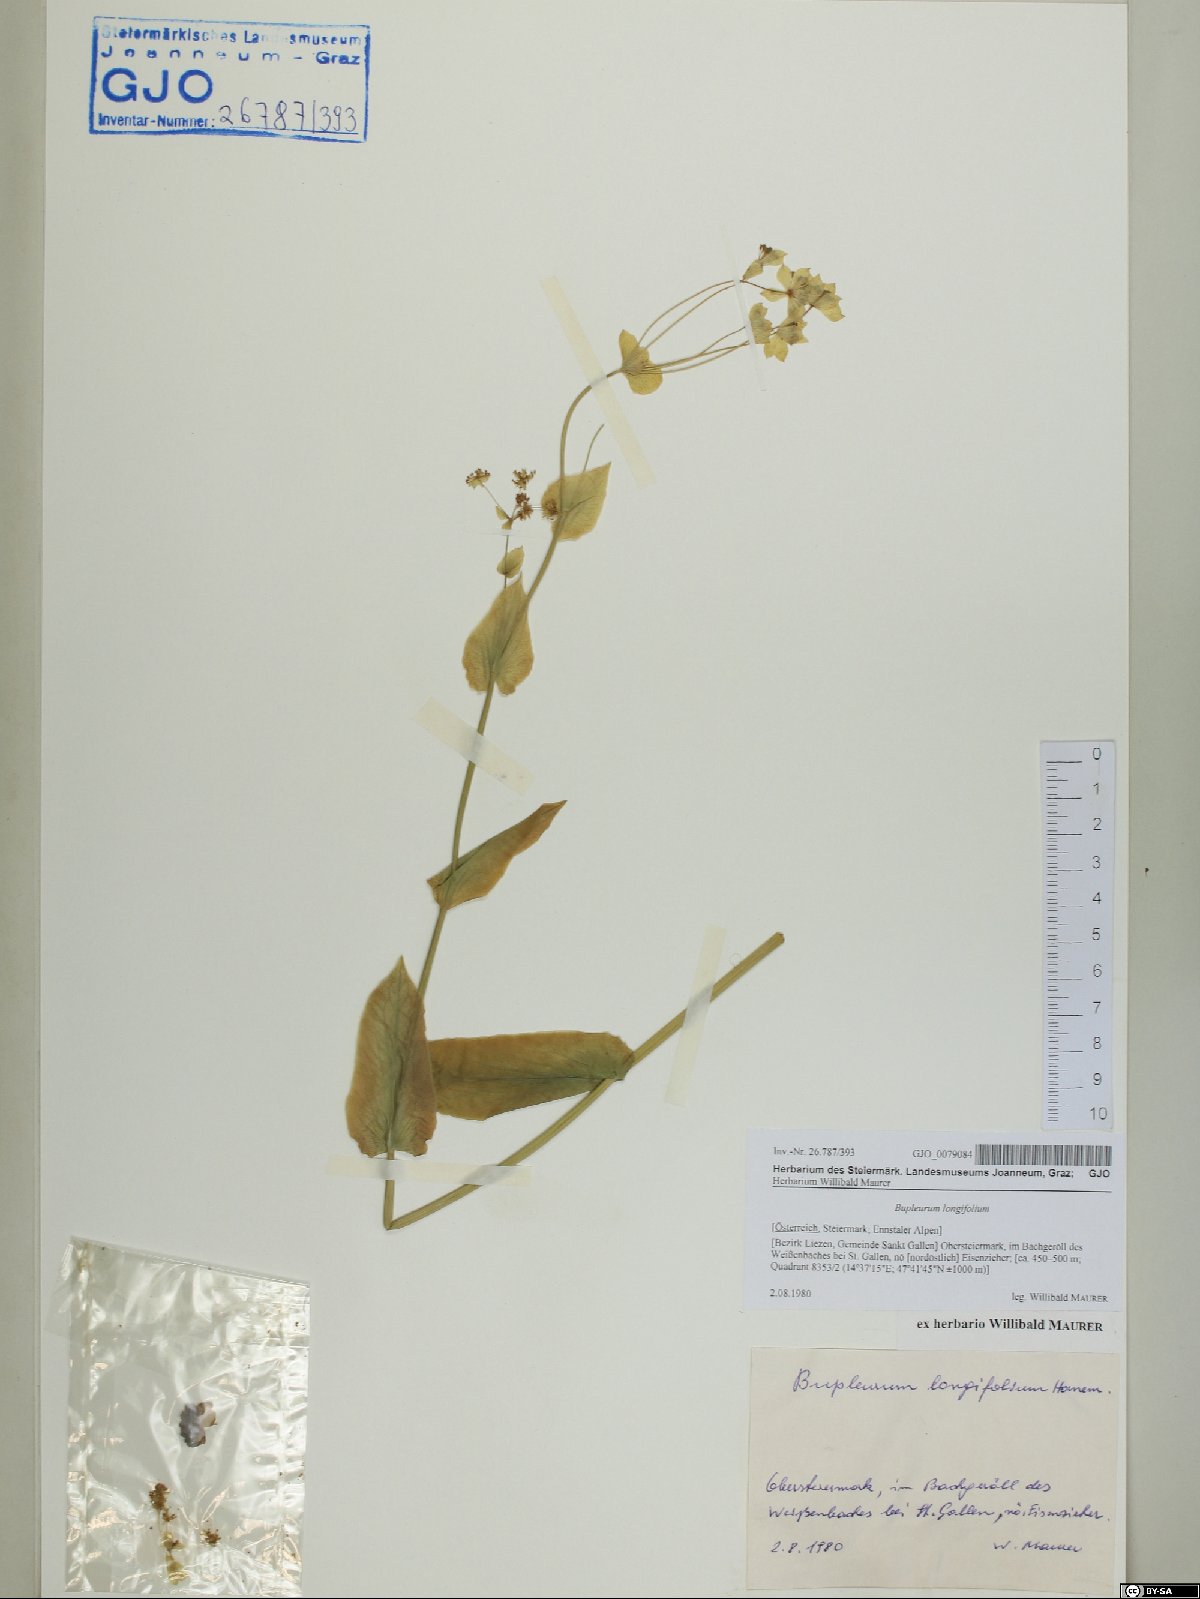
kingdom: Plantae
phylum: Tracheophyta
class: Magnoliopsida
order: Apiales
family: Apiaceae
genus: Bupleurum
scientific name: Bupleurum longifolium
